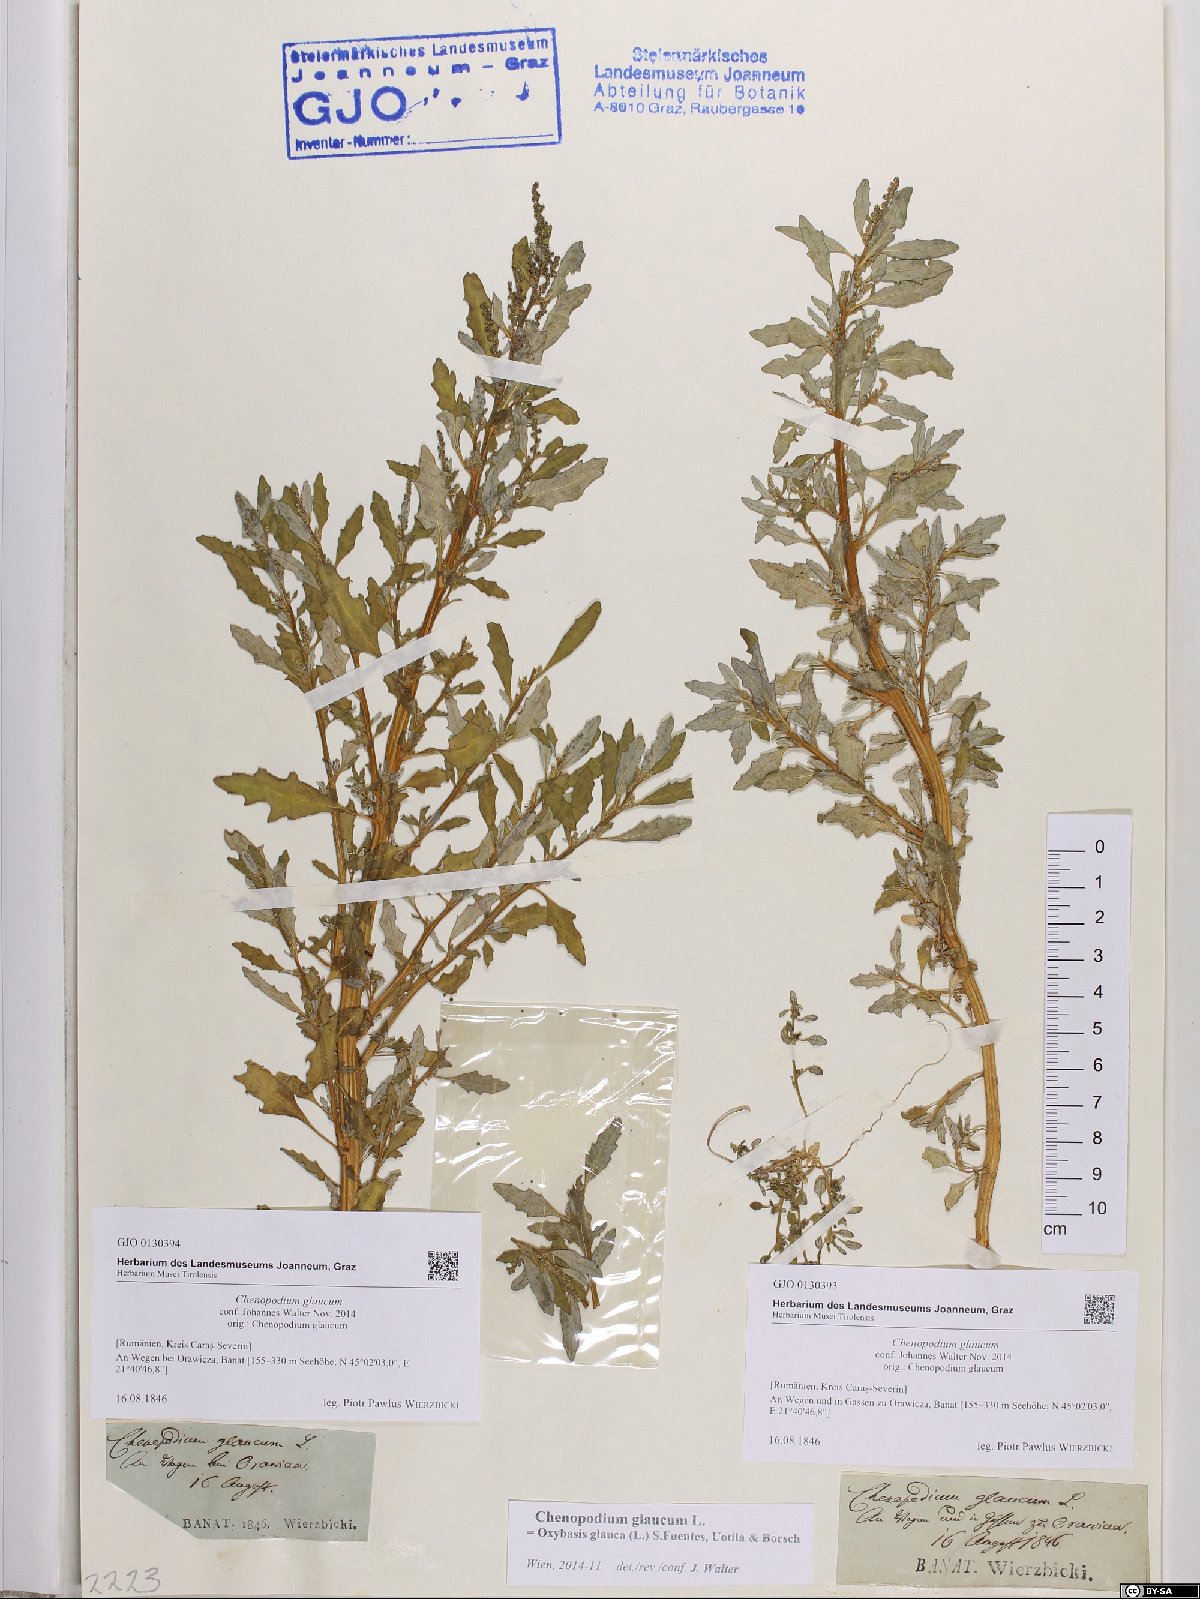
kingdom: Plantae
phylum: Tracheophyta
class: Magnoliopsida
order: Caryophyllales
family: Amaranthaceae
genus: Oxybasis
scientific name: Oxybasis glauca
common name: Glaucous goosefoot
